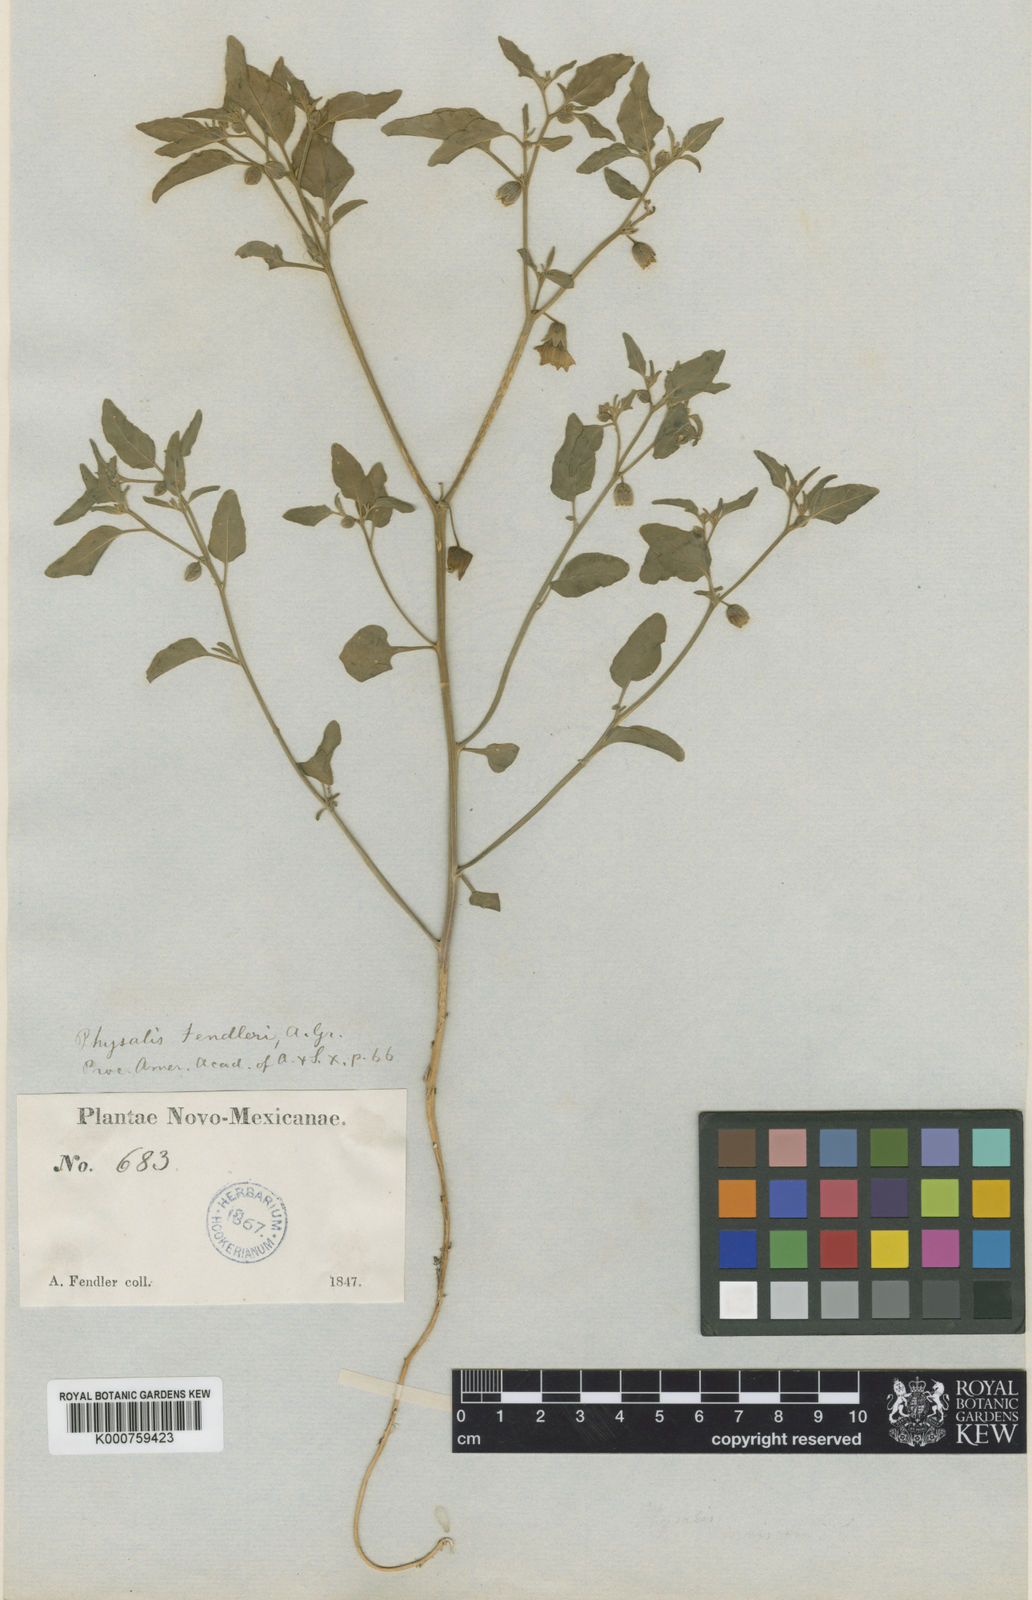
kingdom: Plantae
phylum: Tracheophyta
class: Magnoliopsida
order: Solanales
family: Solanaceae
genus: Physalis
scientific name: Physalis fendleri
